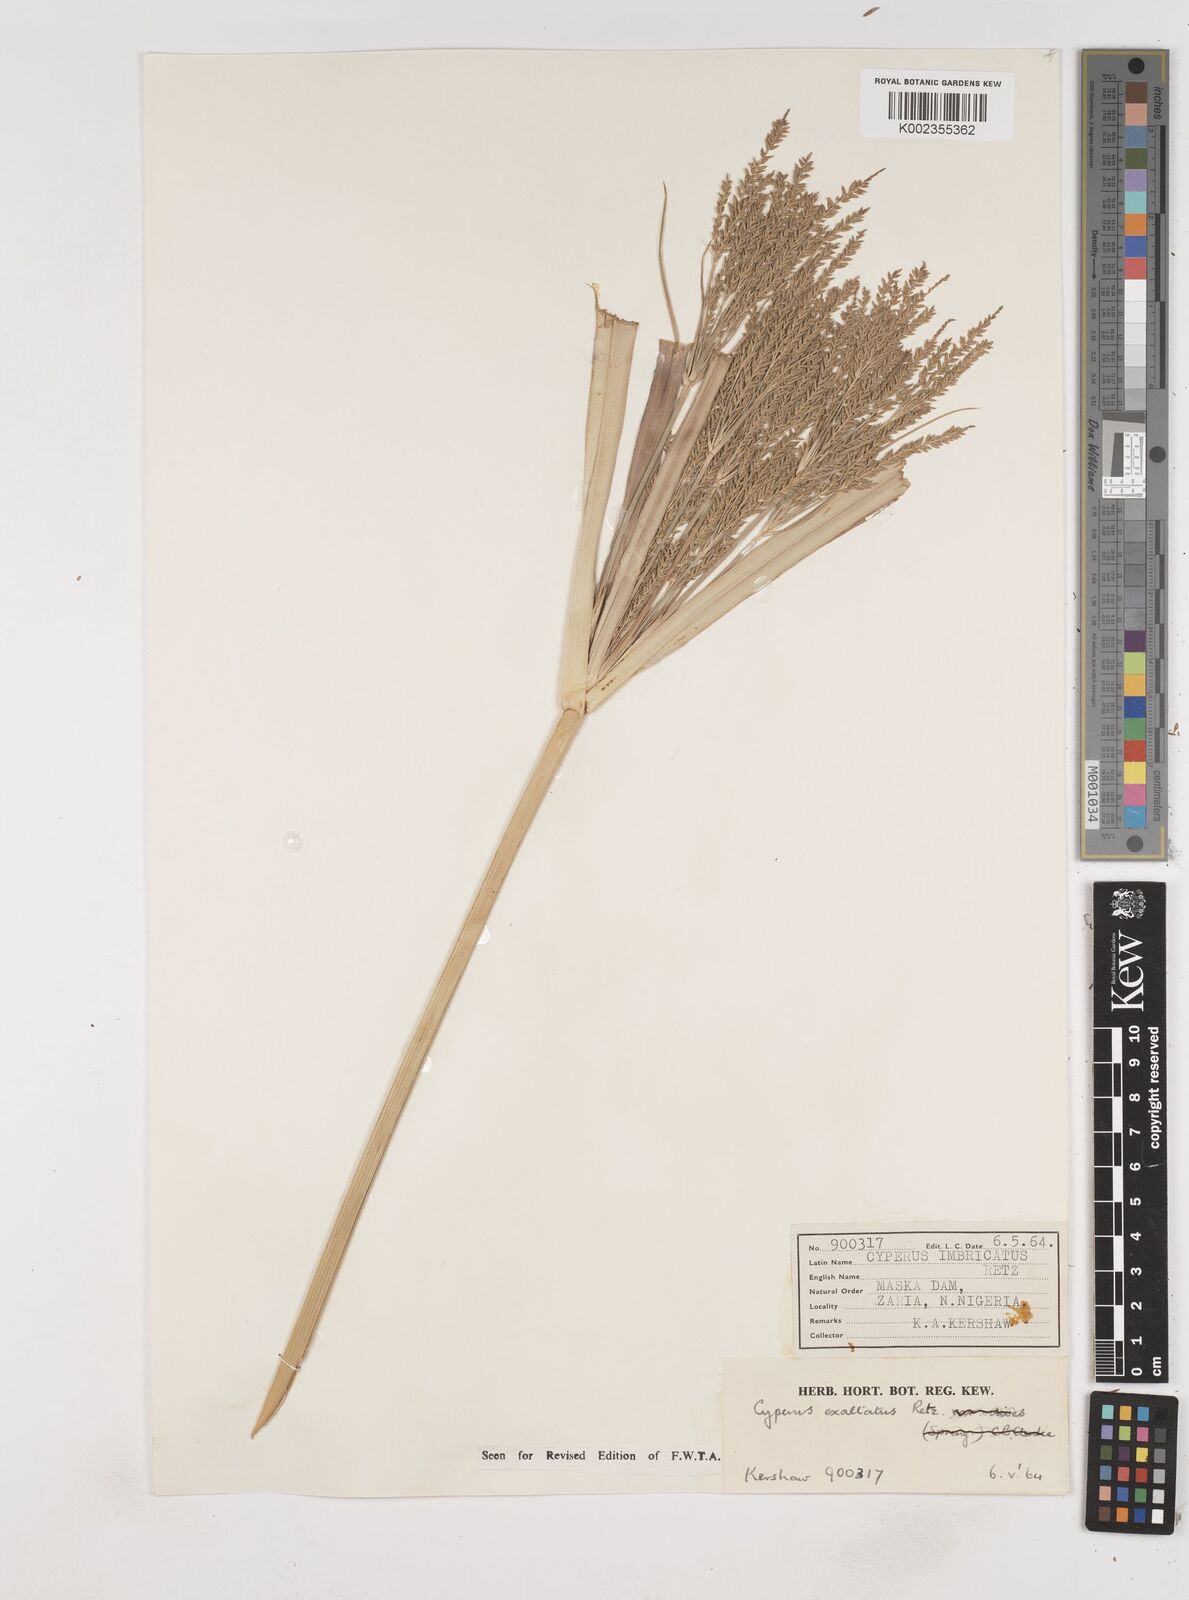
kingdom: Plantae
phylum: Tracheophyta
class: Liliopsida
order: Poales
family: Cyperaceae
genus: Cyperus
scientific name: Cyperus exaltatus
